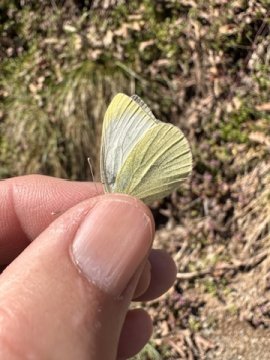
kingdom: Animalia
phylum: Arthropoda
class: Insecta
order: Lepidoptera
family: Pieridae
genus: Pieris
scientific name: Pieris rapae
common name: Cabbage White
